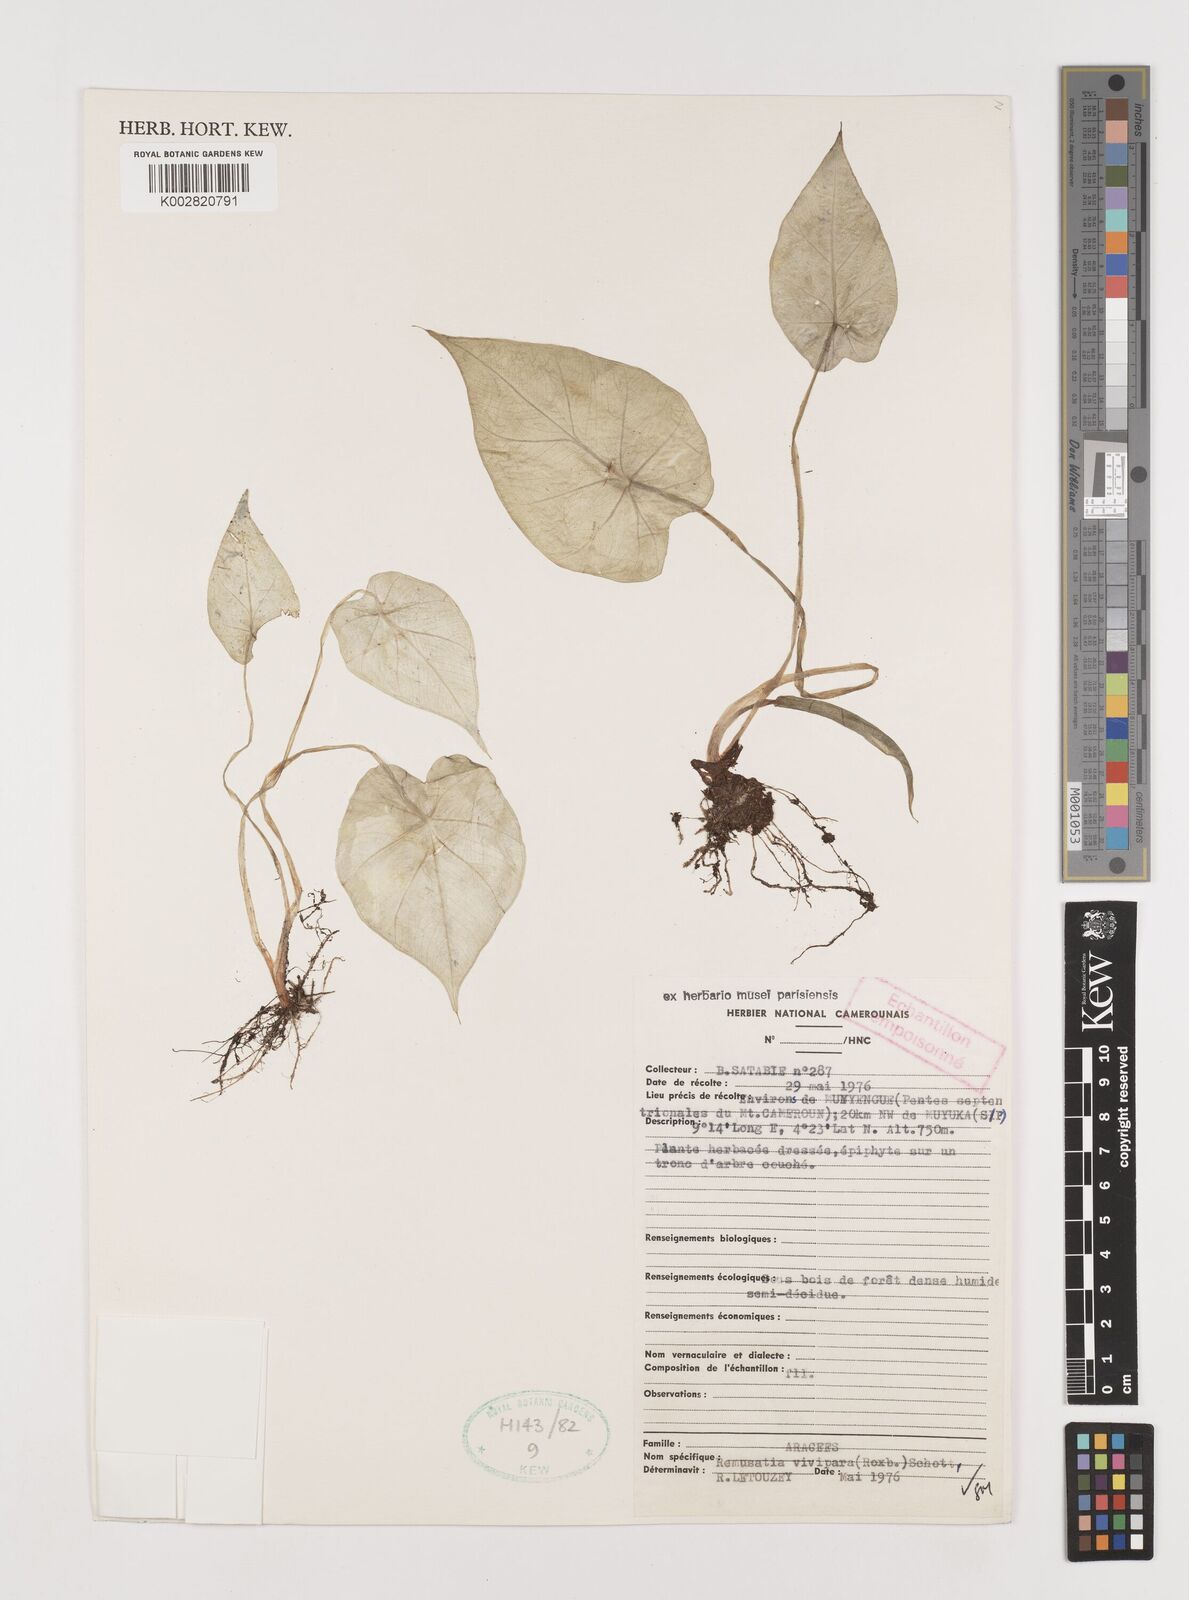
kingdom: Plantae
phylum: Tracheophyta
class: Liliopsida
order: Alismatales
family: Araceae
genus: Remusatia
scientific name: Remusatia vivipara
